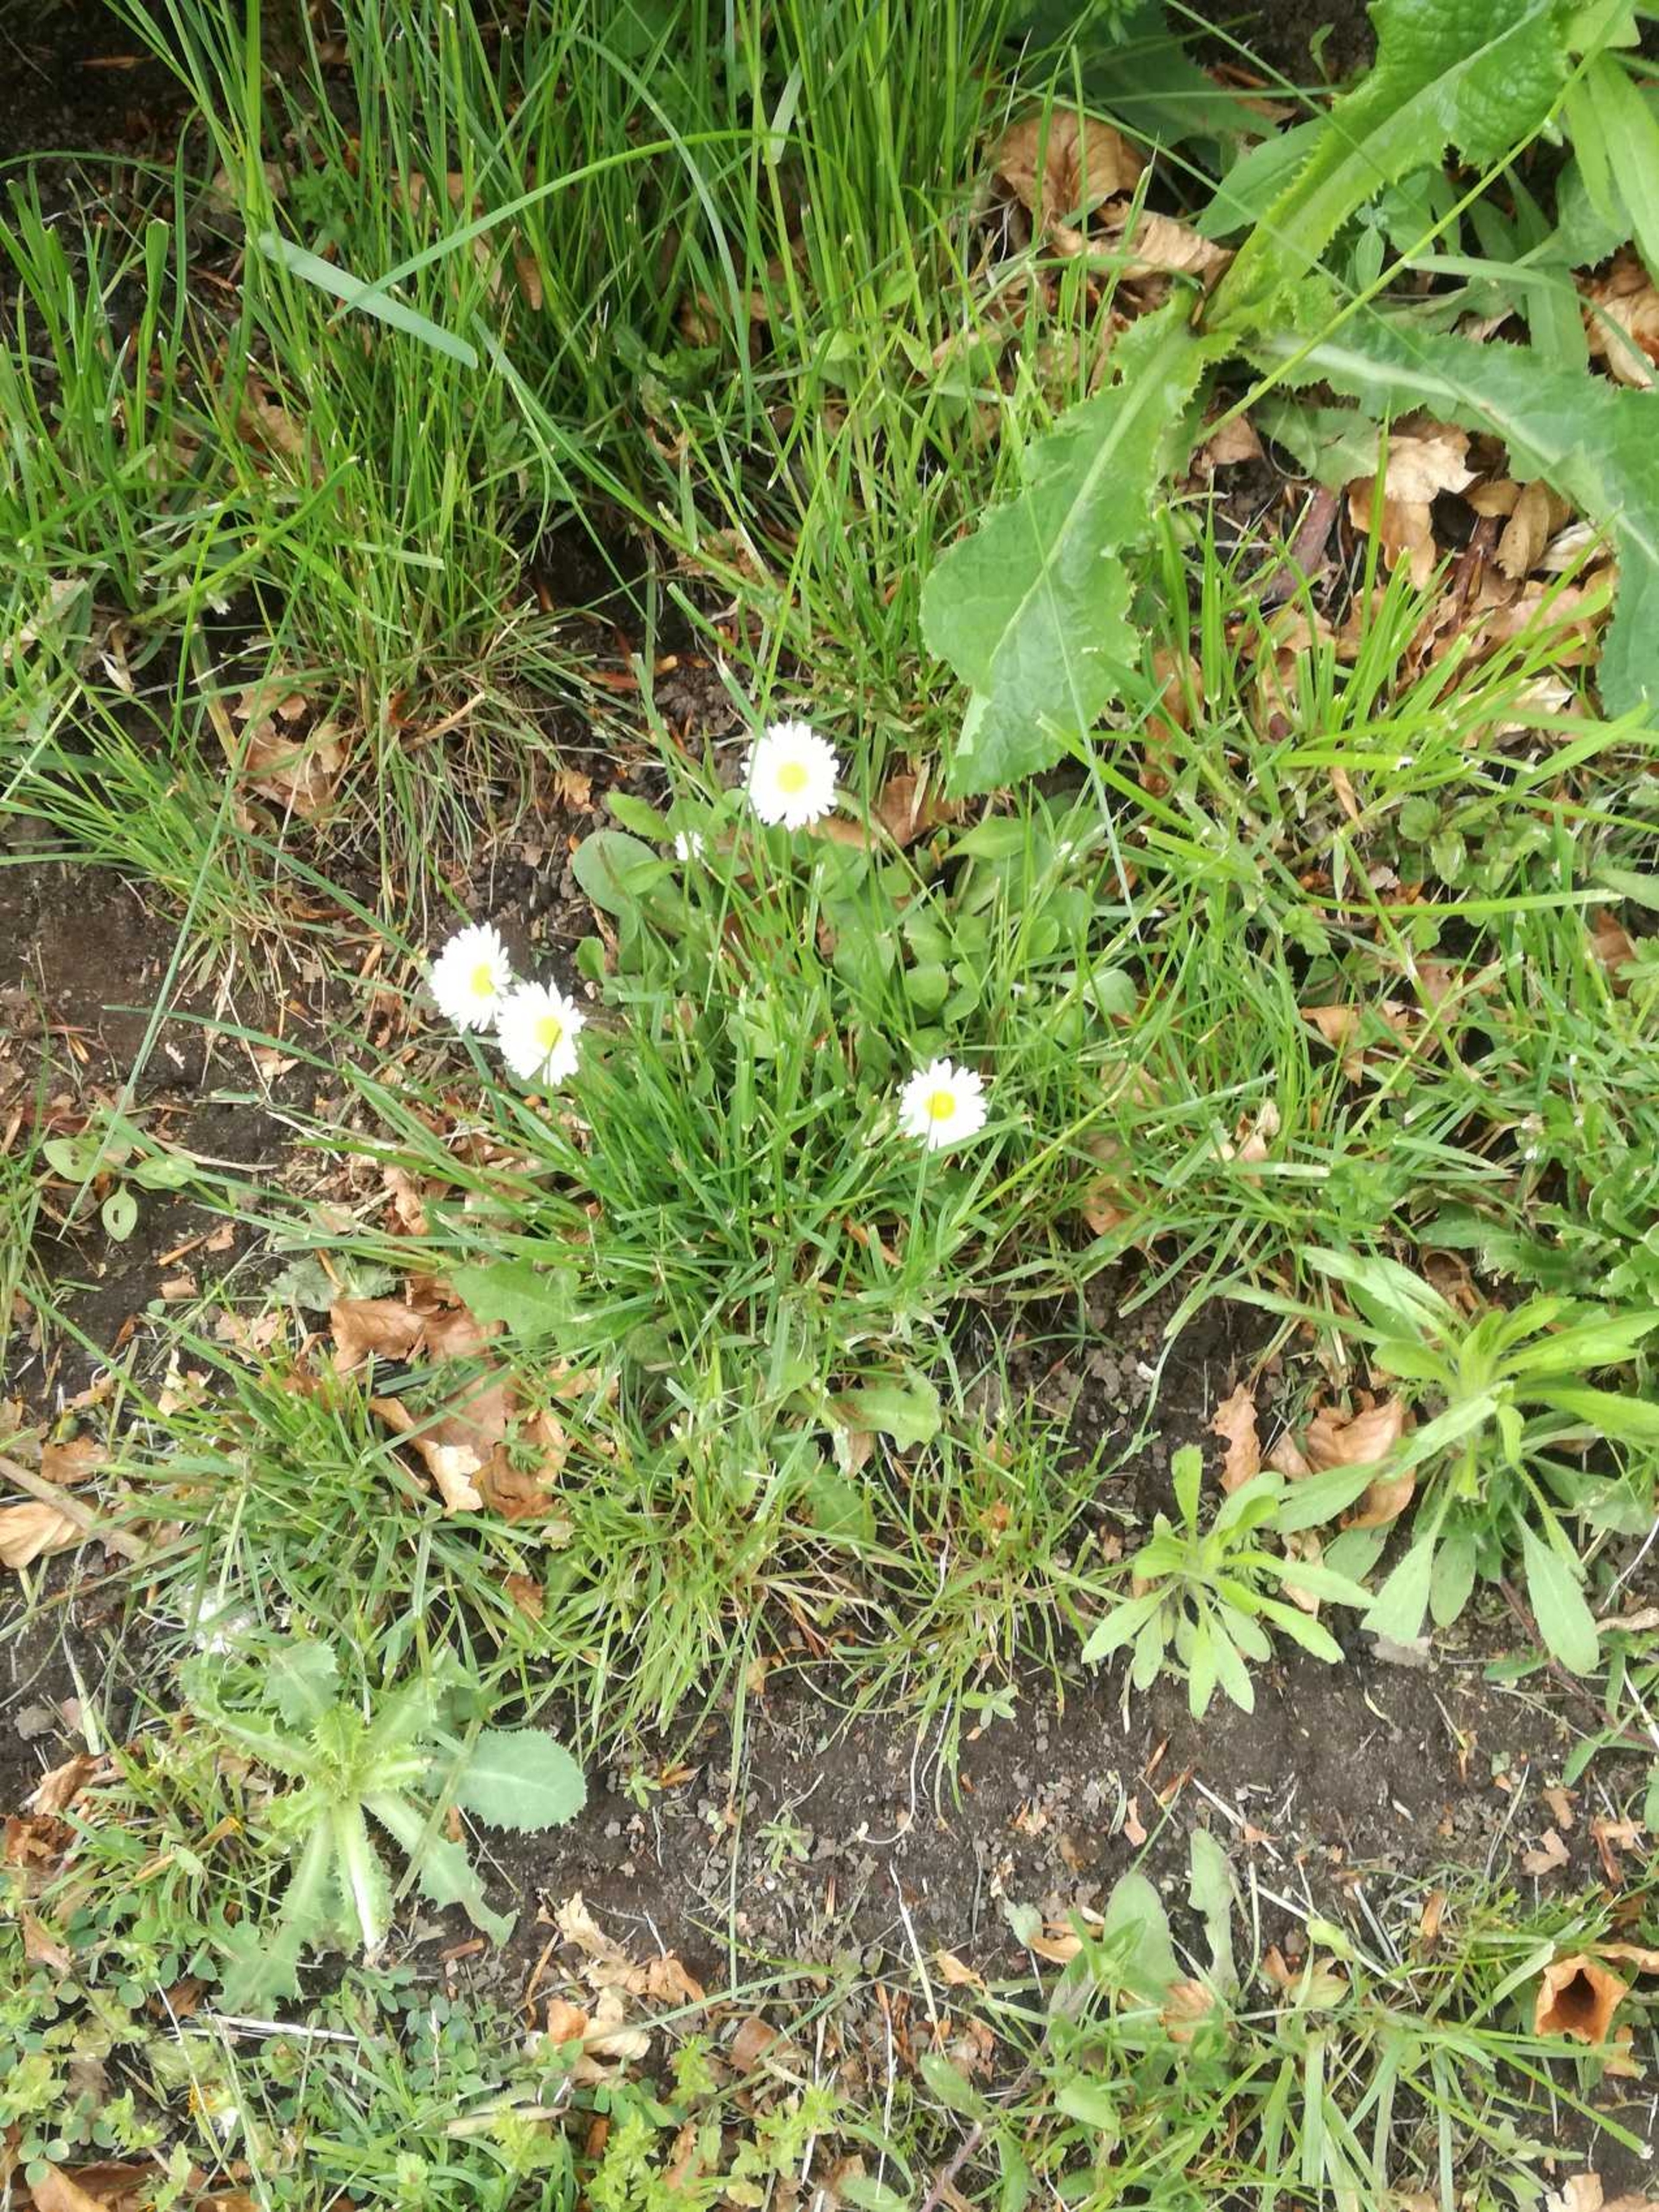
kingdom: Plantae
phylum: Tracheophyta
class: Magnoliopsida
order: Asterales
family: Asteraceae
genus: Bellis
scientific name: Bellis perennis
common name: Tusindfryd
